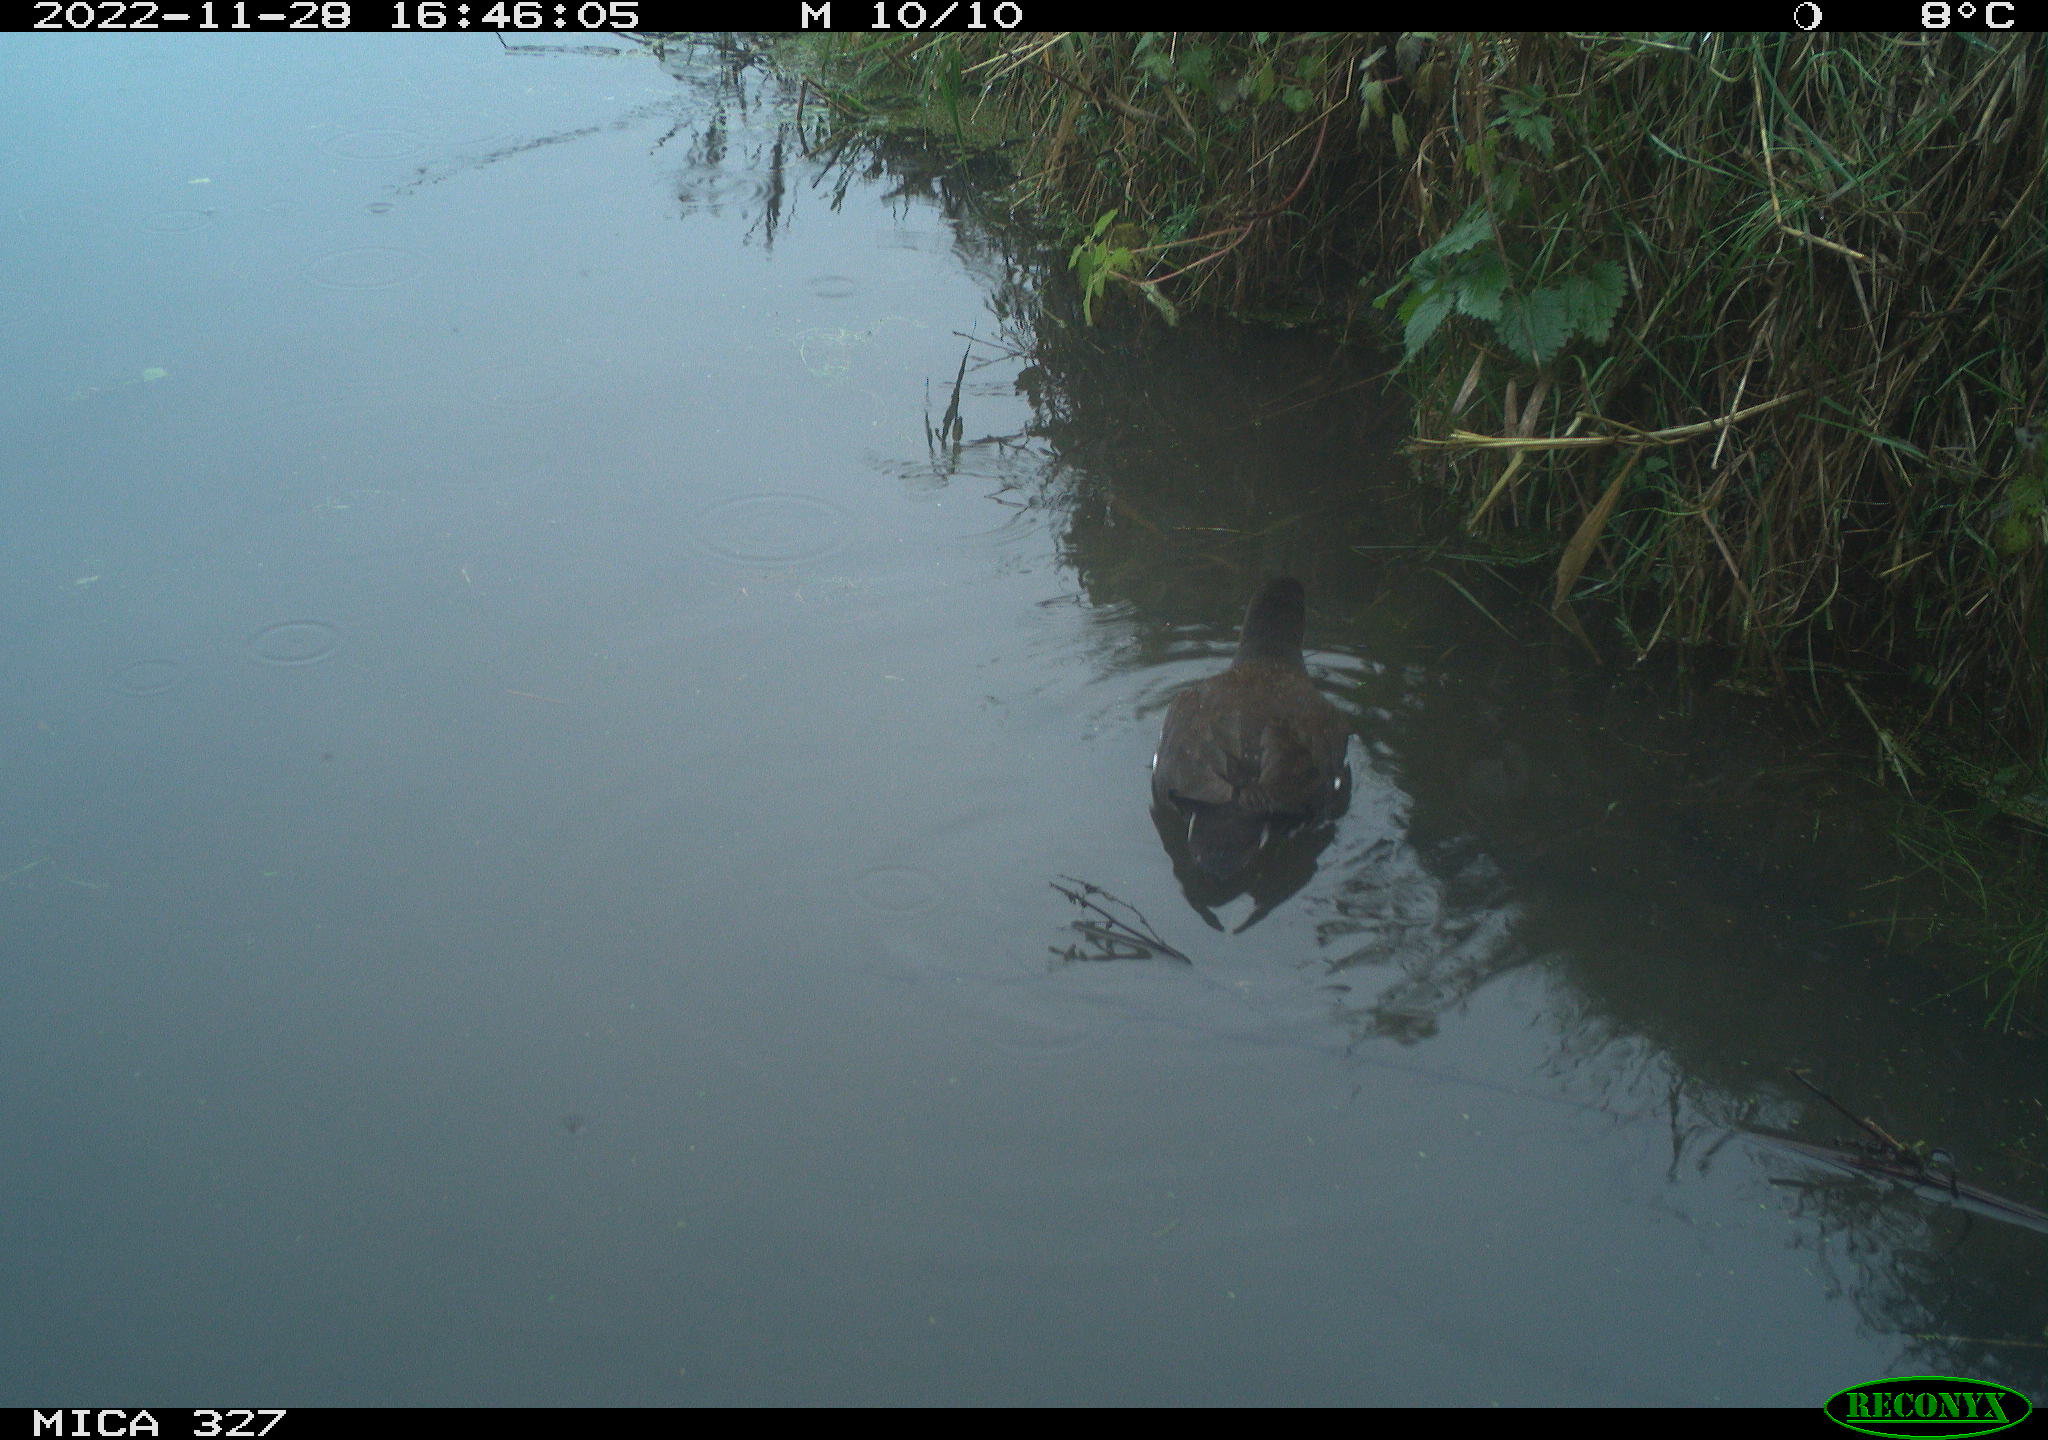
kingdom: Animalia
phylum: Chordata
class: Aves
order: Gruiformes
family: Rallidae
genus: Gallinula
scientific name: Gallinula chloropus
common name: Common moorhen
